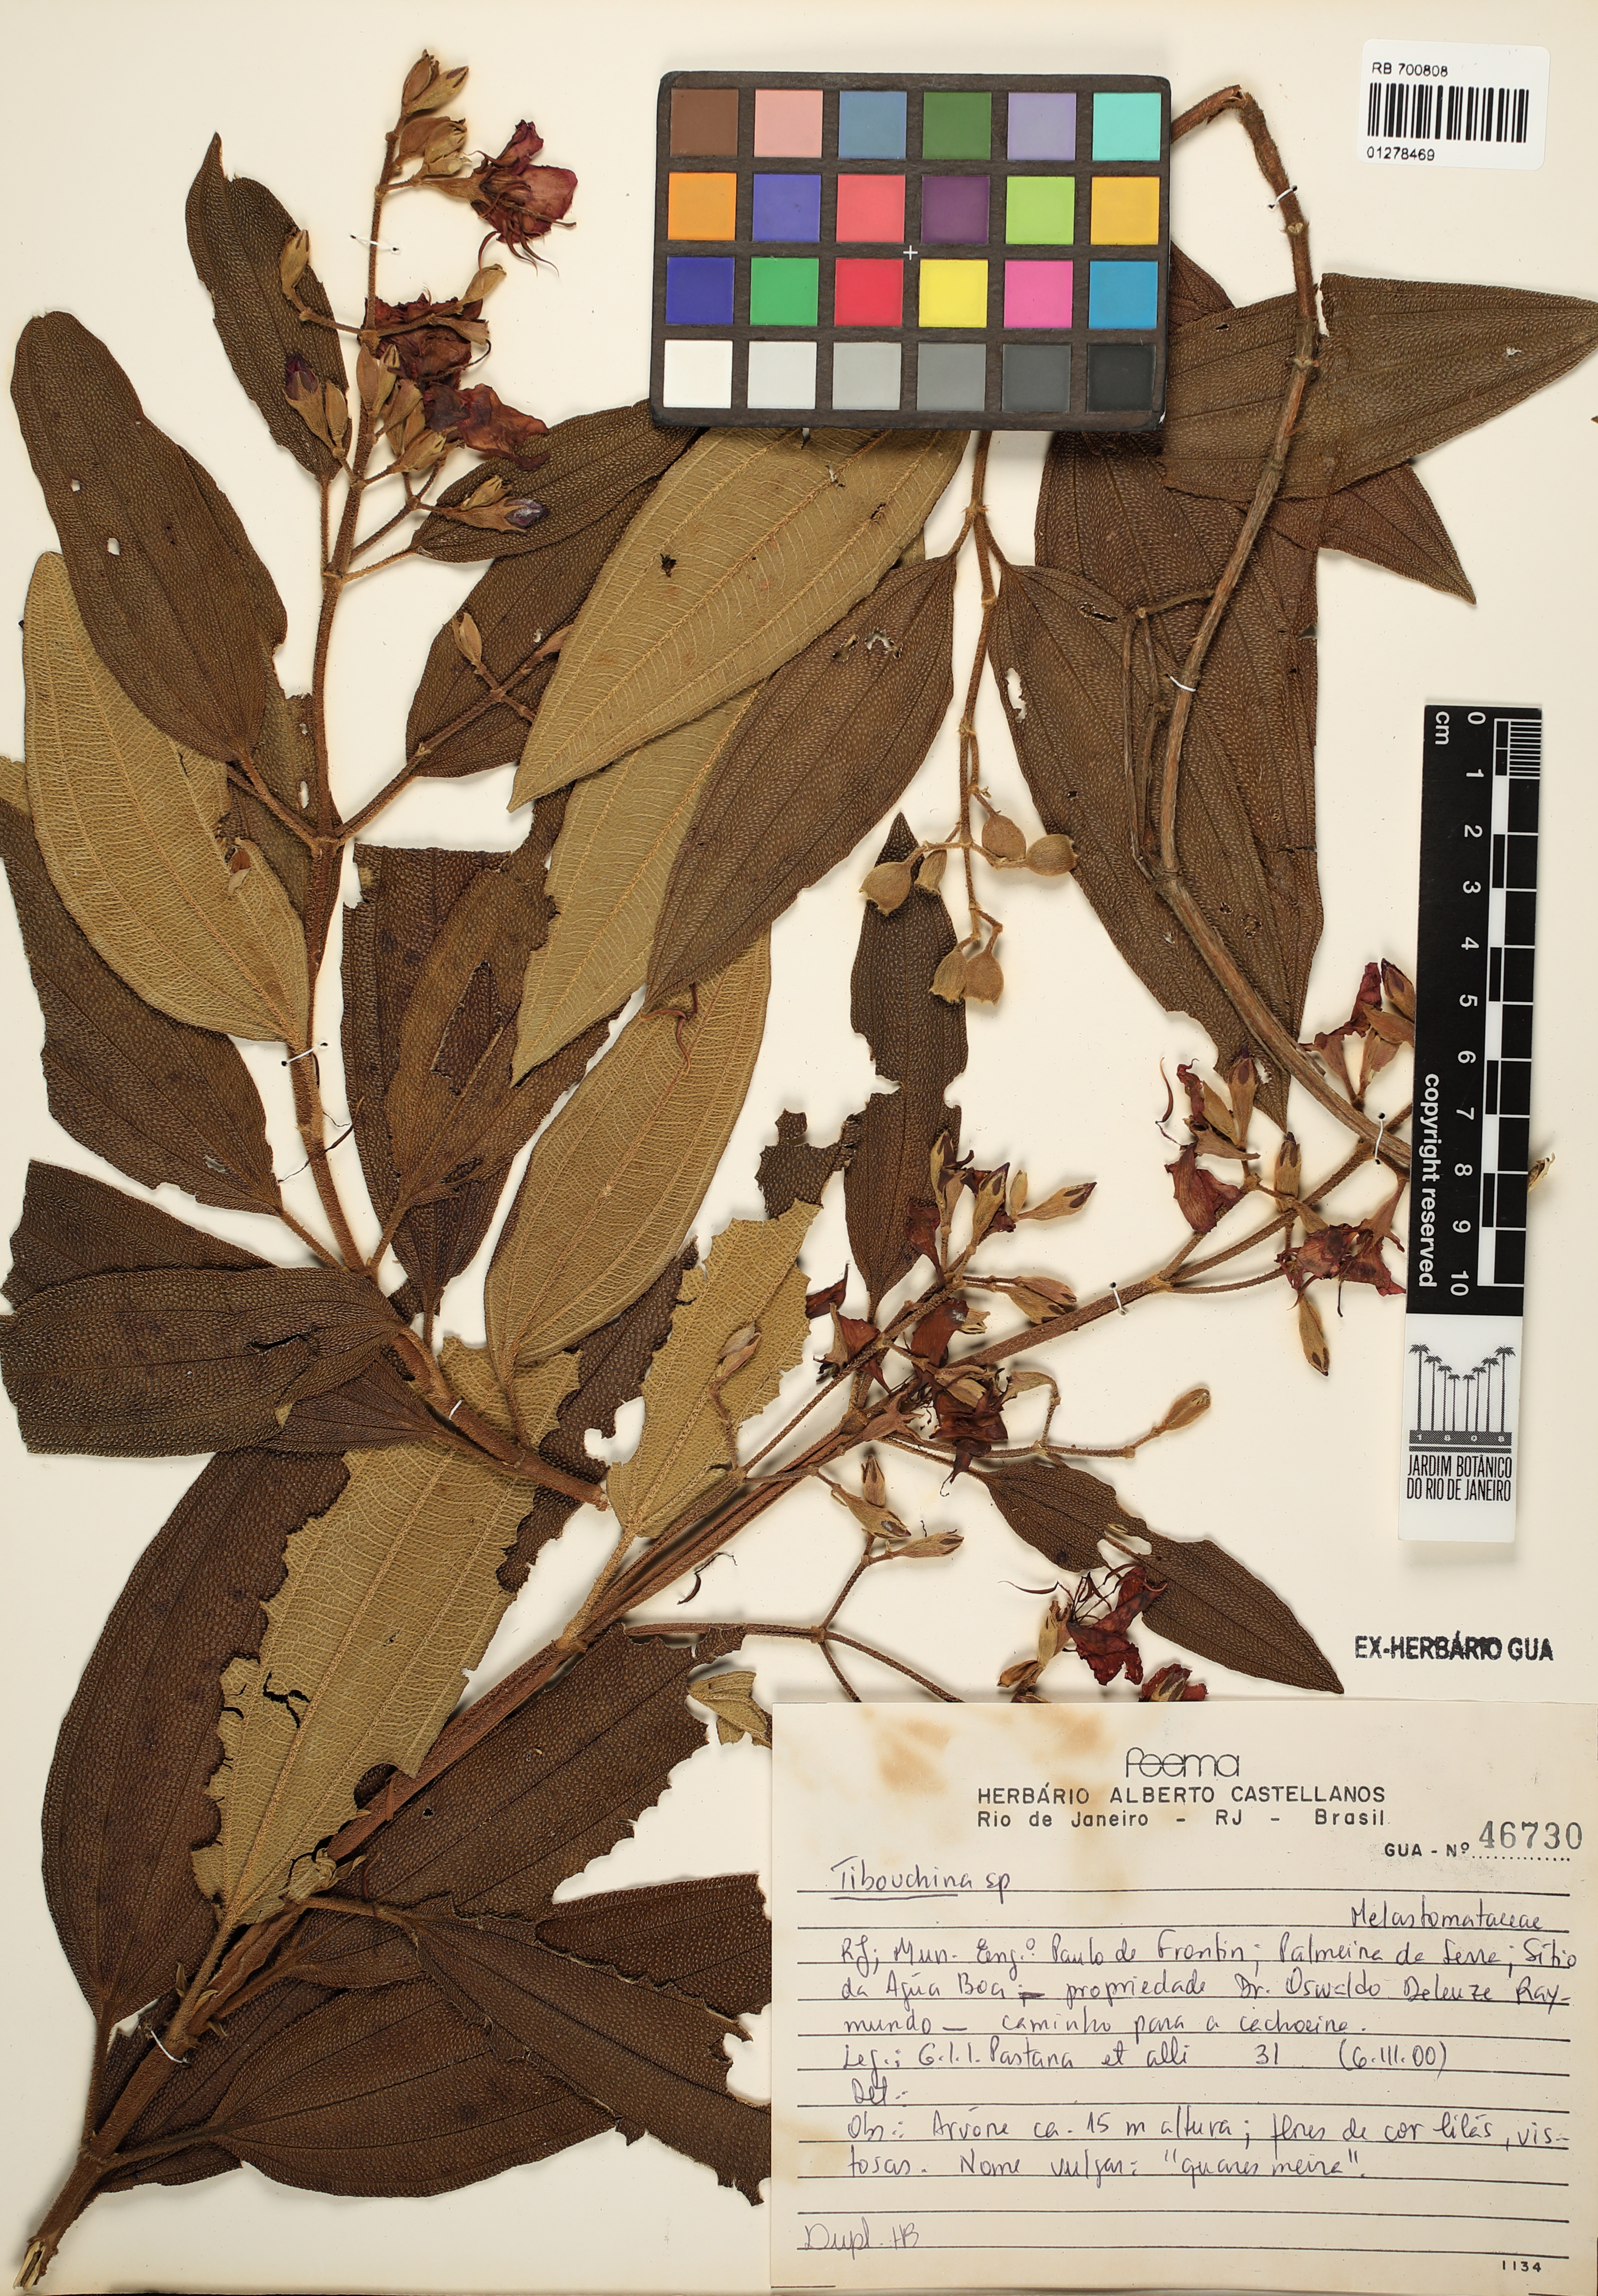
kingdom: Plantae
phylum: Tracheophyta
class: Magnoliopsida
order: Myrtales
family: Melastomataceae
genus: Tibouchina
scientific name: Tibouchina
